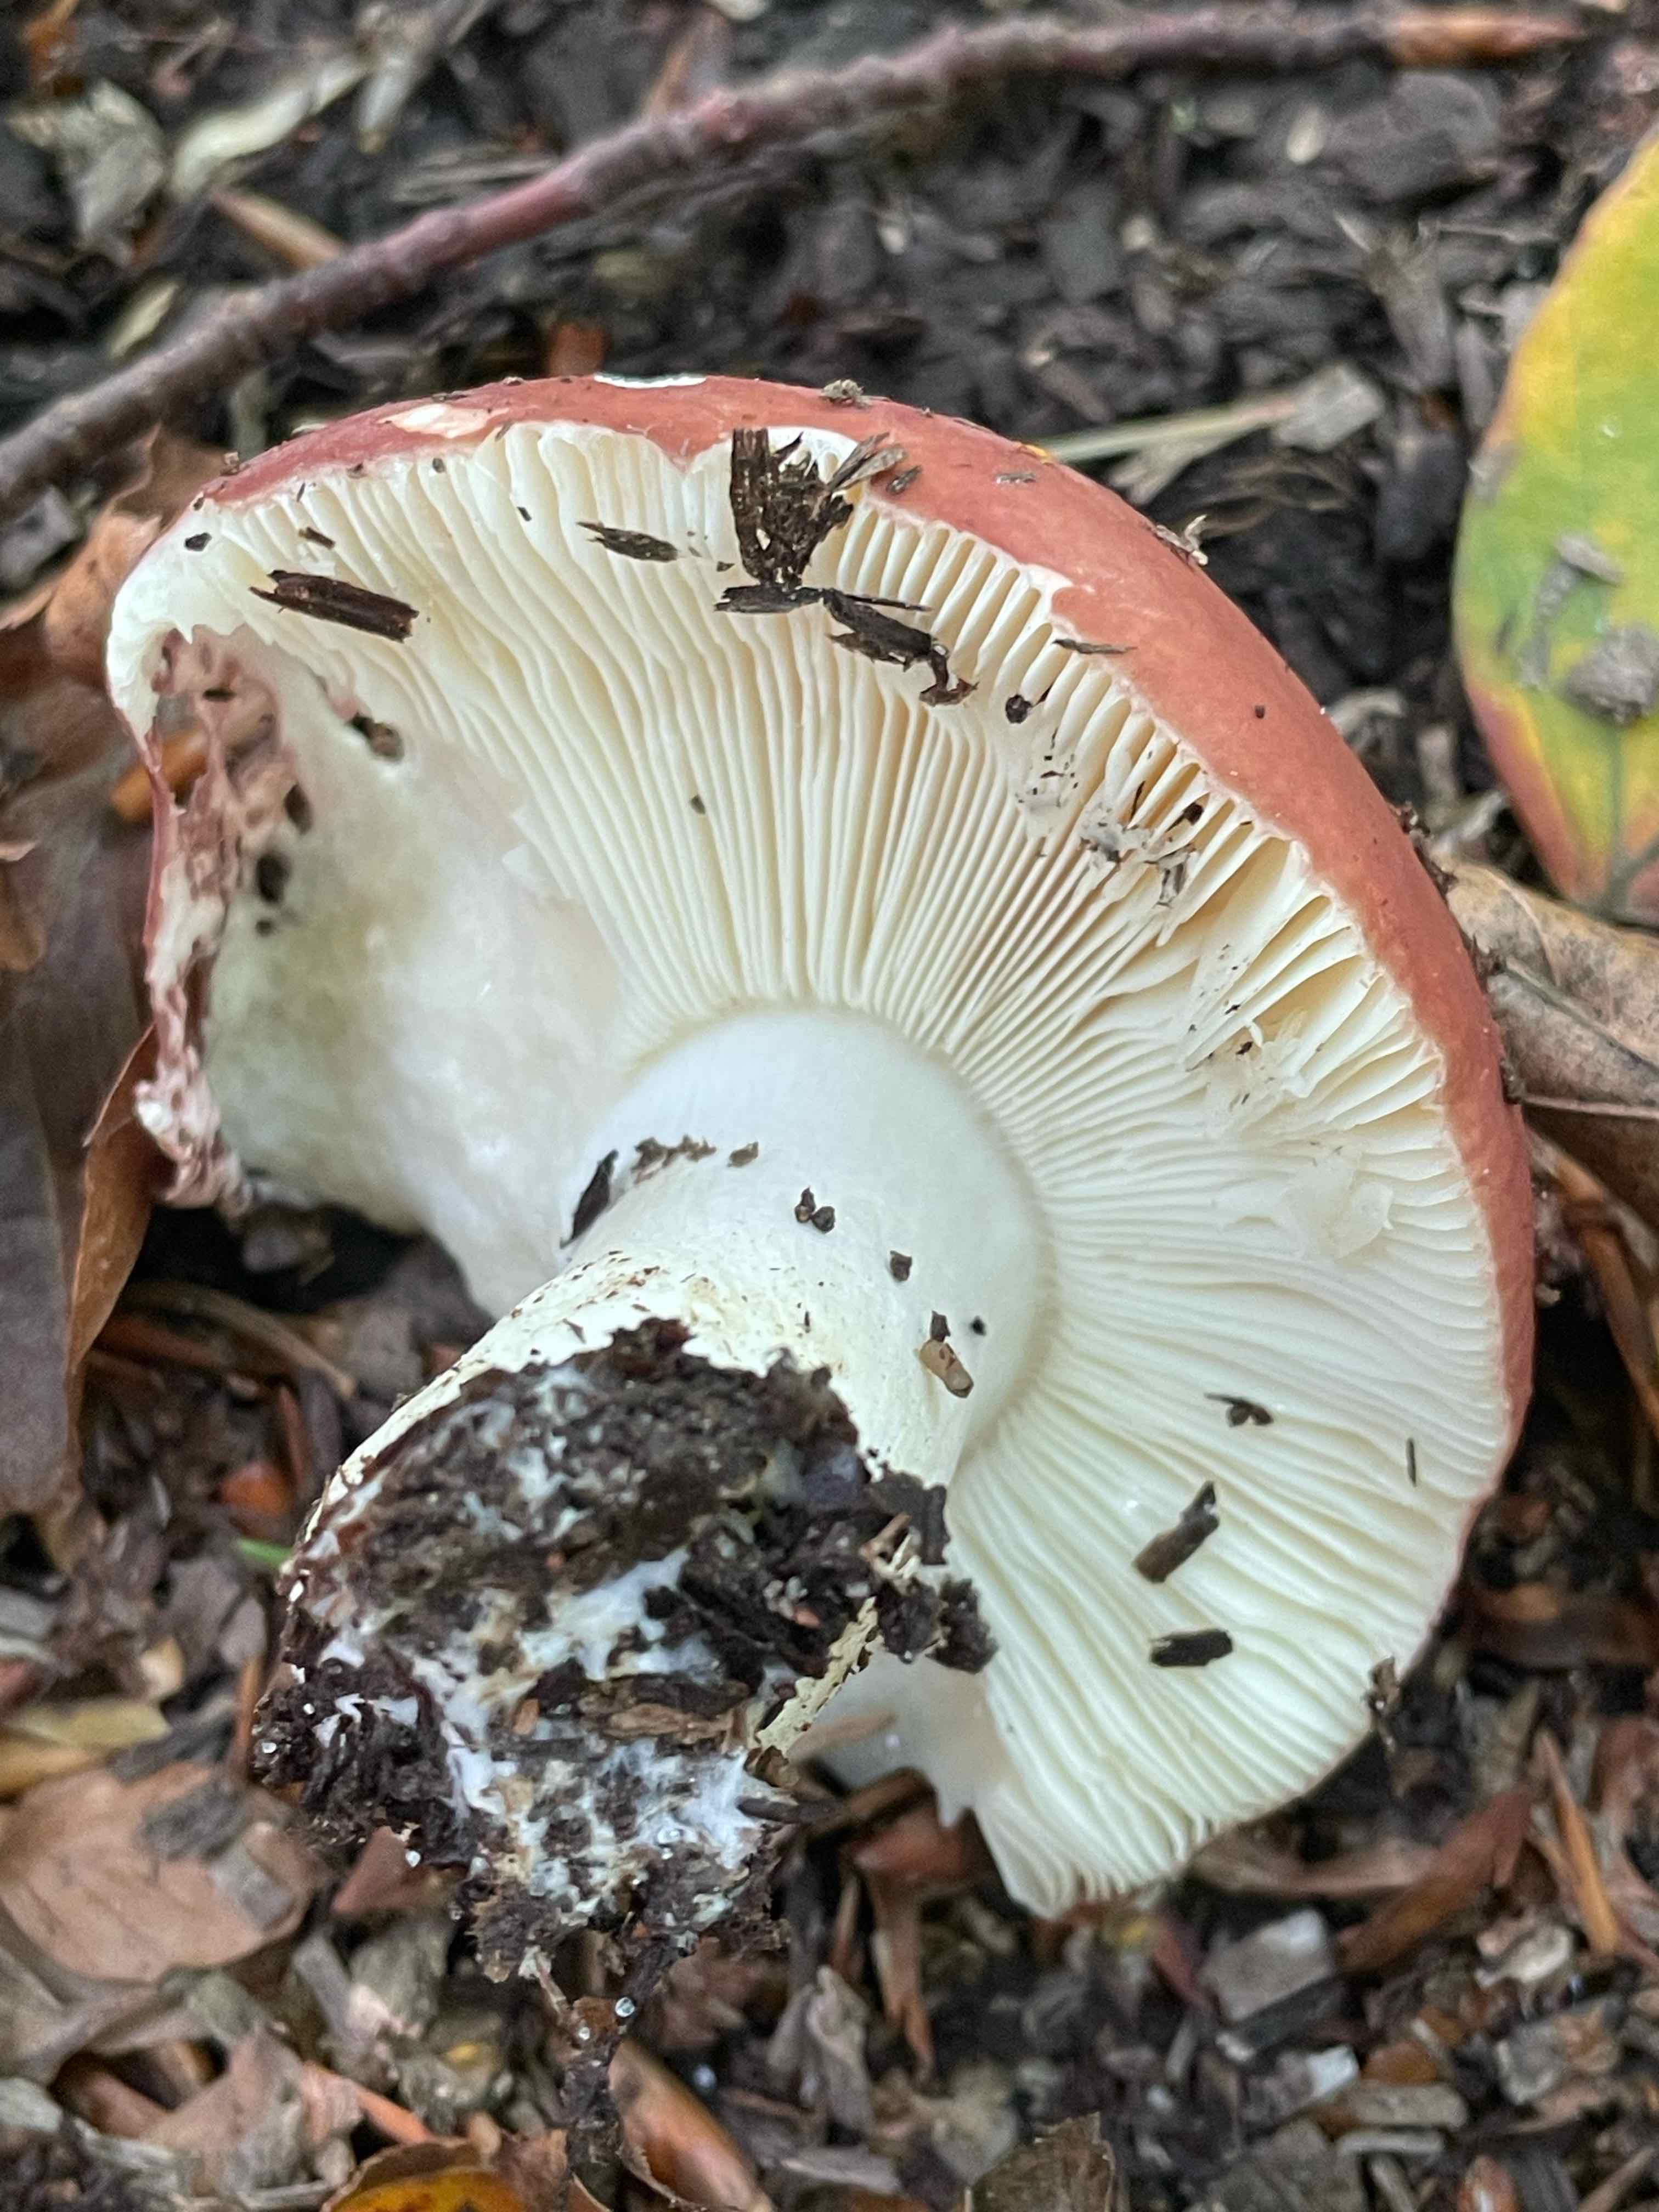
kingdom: Fungi
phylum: Basidiomycota
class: Agaricomycetes
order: Russulales
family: Russulaceae
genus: Russula
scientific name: Russula
